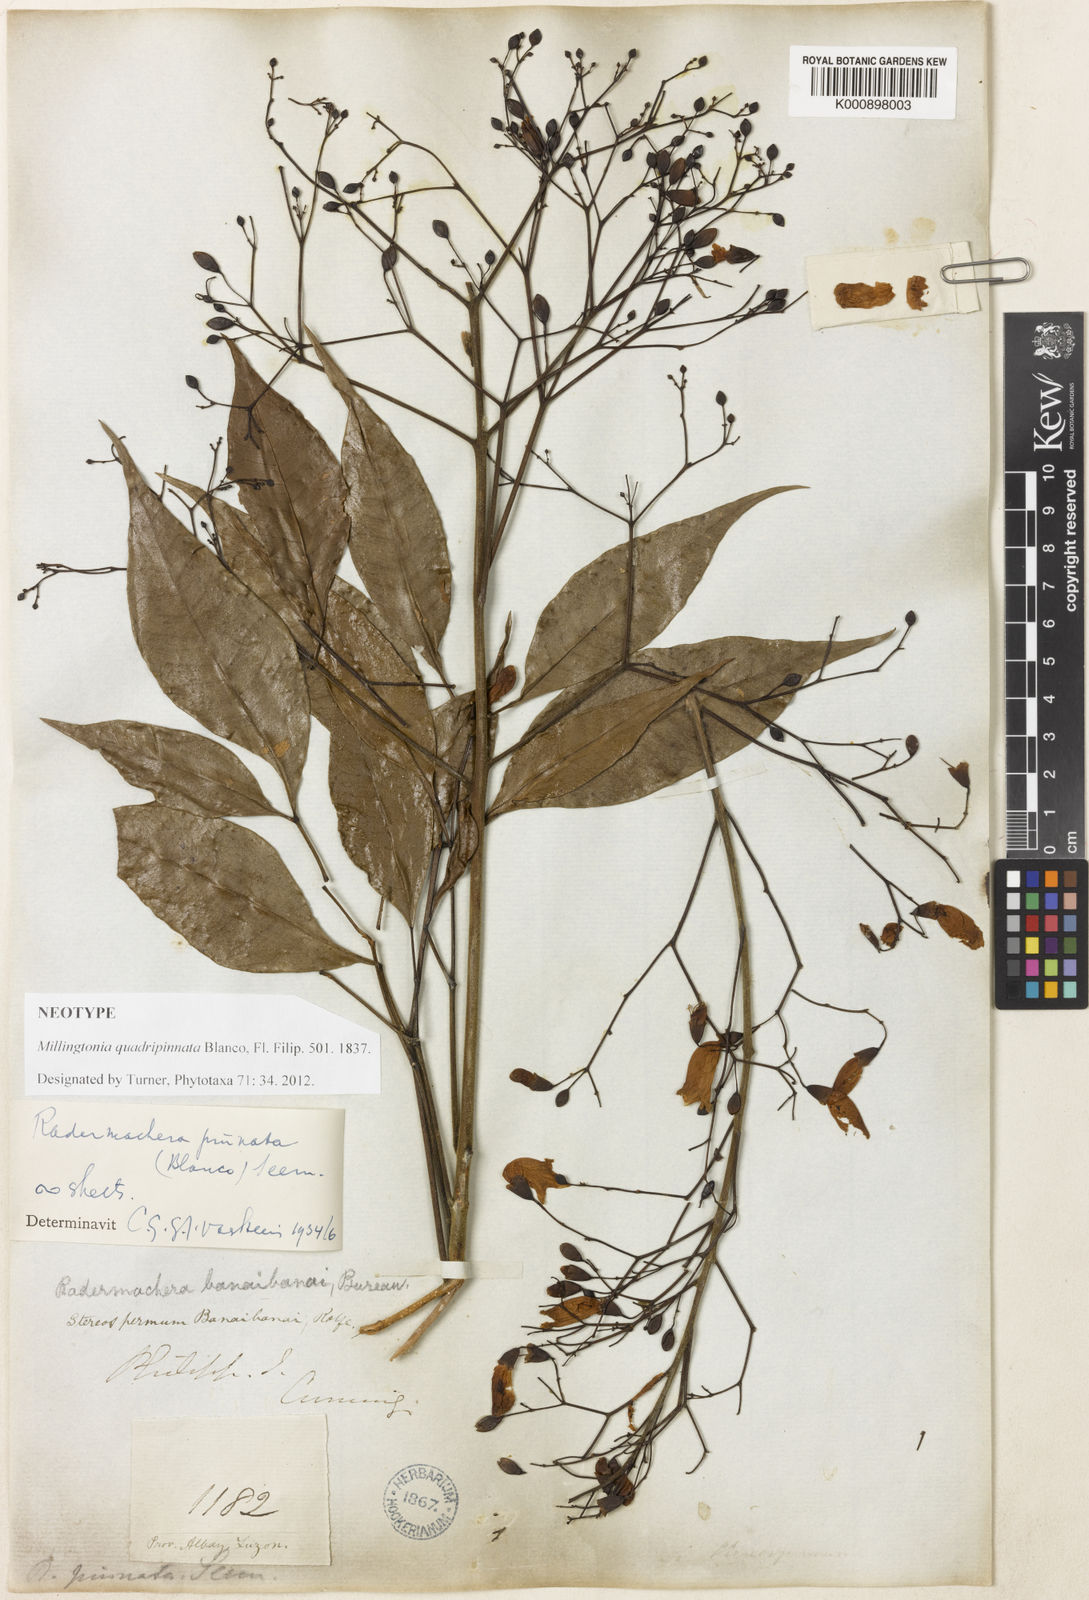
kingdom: Plantae
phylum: Tracheophyta
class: Magnoliopsida
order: Lamiales
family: Bignoniaceae
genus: Radermachera
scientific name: Radermachera quadripinnata
